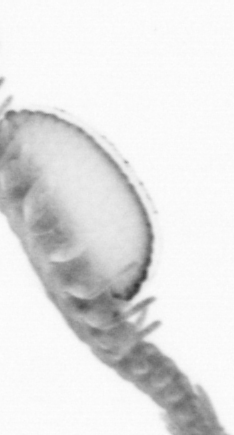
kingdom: Animalia
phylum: Annelida
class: Polychaeta
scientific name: Polychaeta
